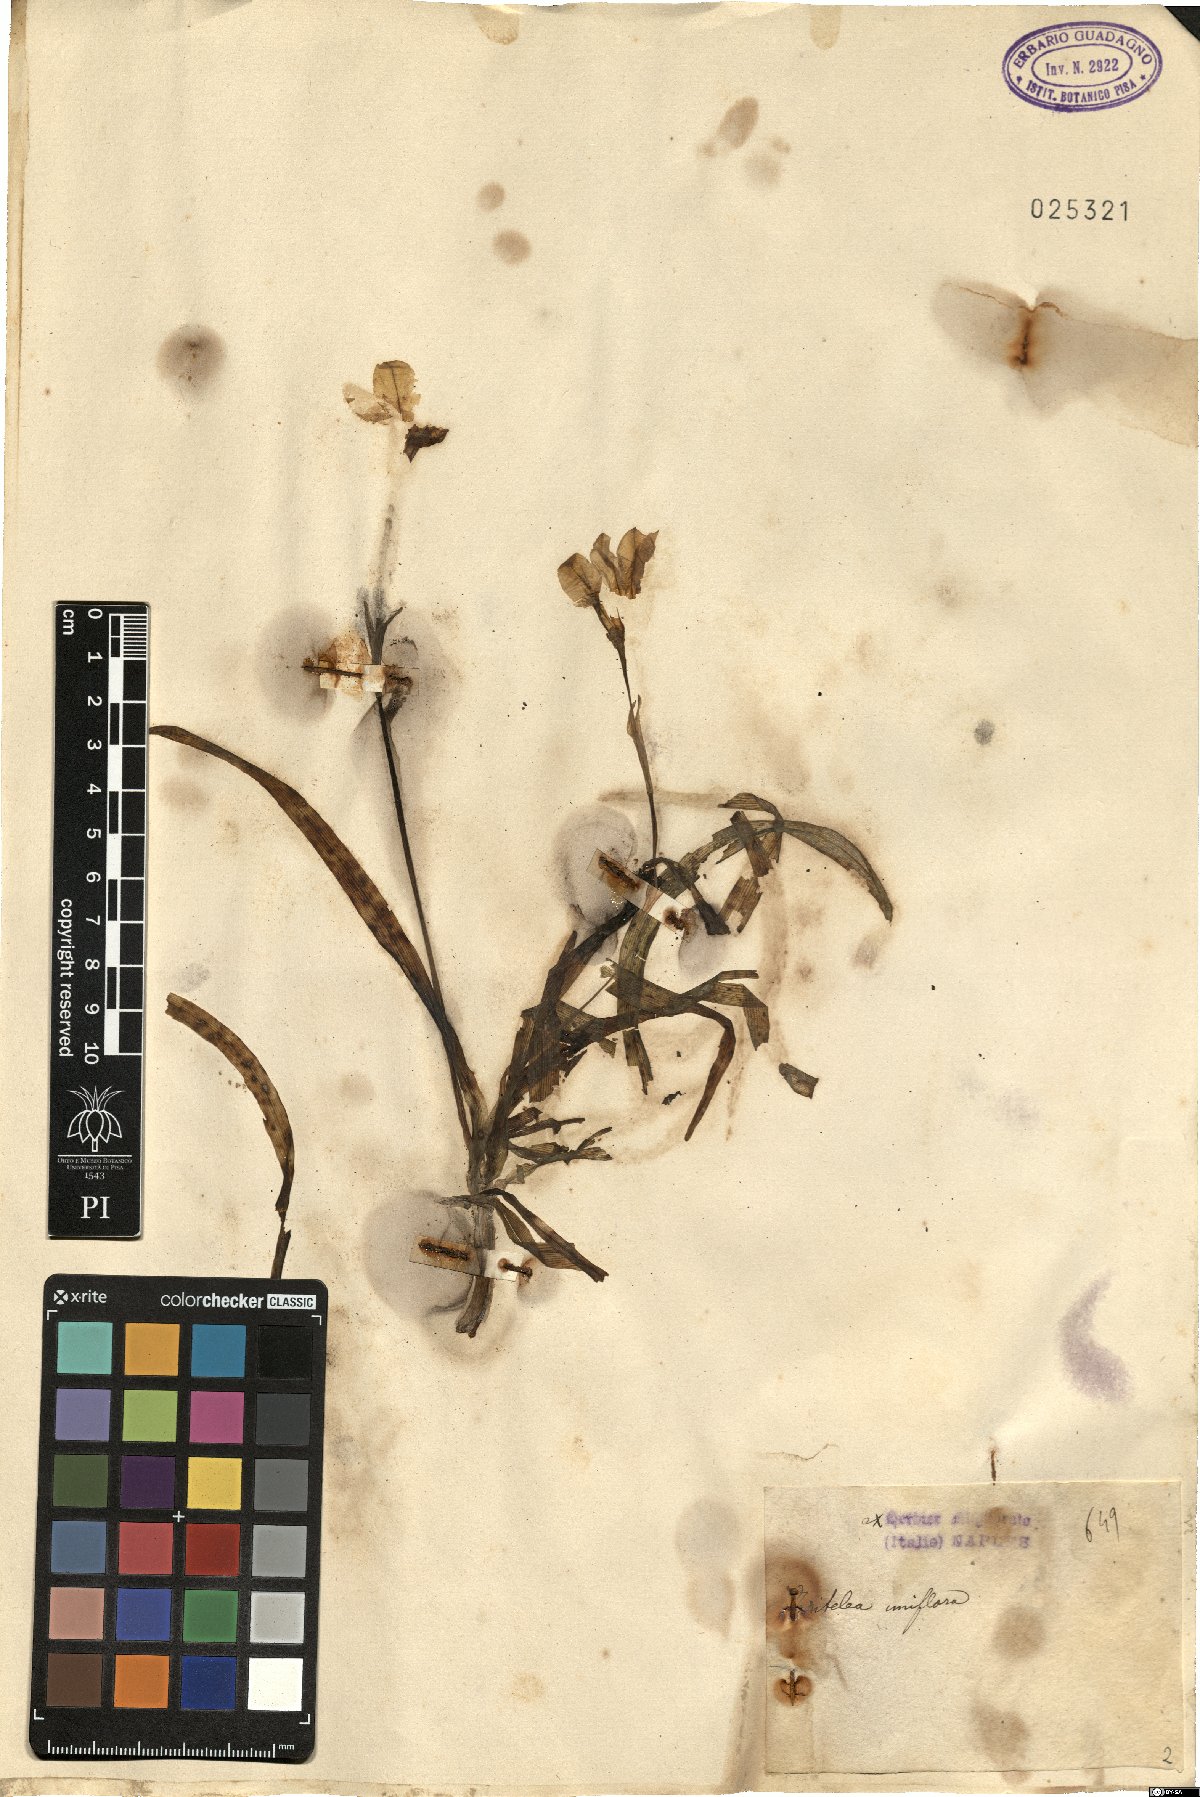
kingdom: Plantae
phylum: Tracheophyta
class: Liliopsida
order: Asparagales
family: Amaryllidaceae
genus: Ipheion
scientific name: Ipheion uniflorum
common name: Spring starflower
